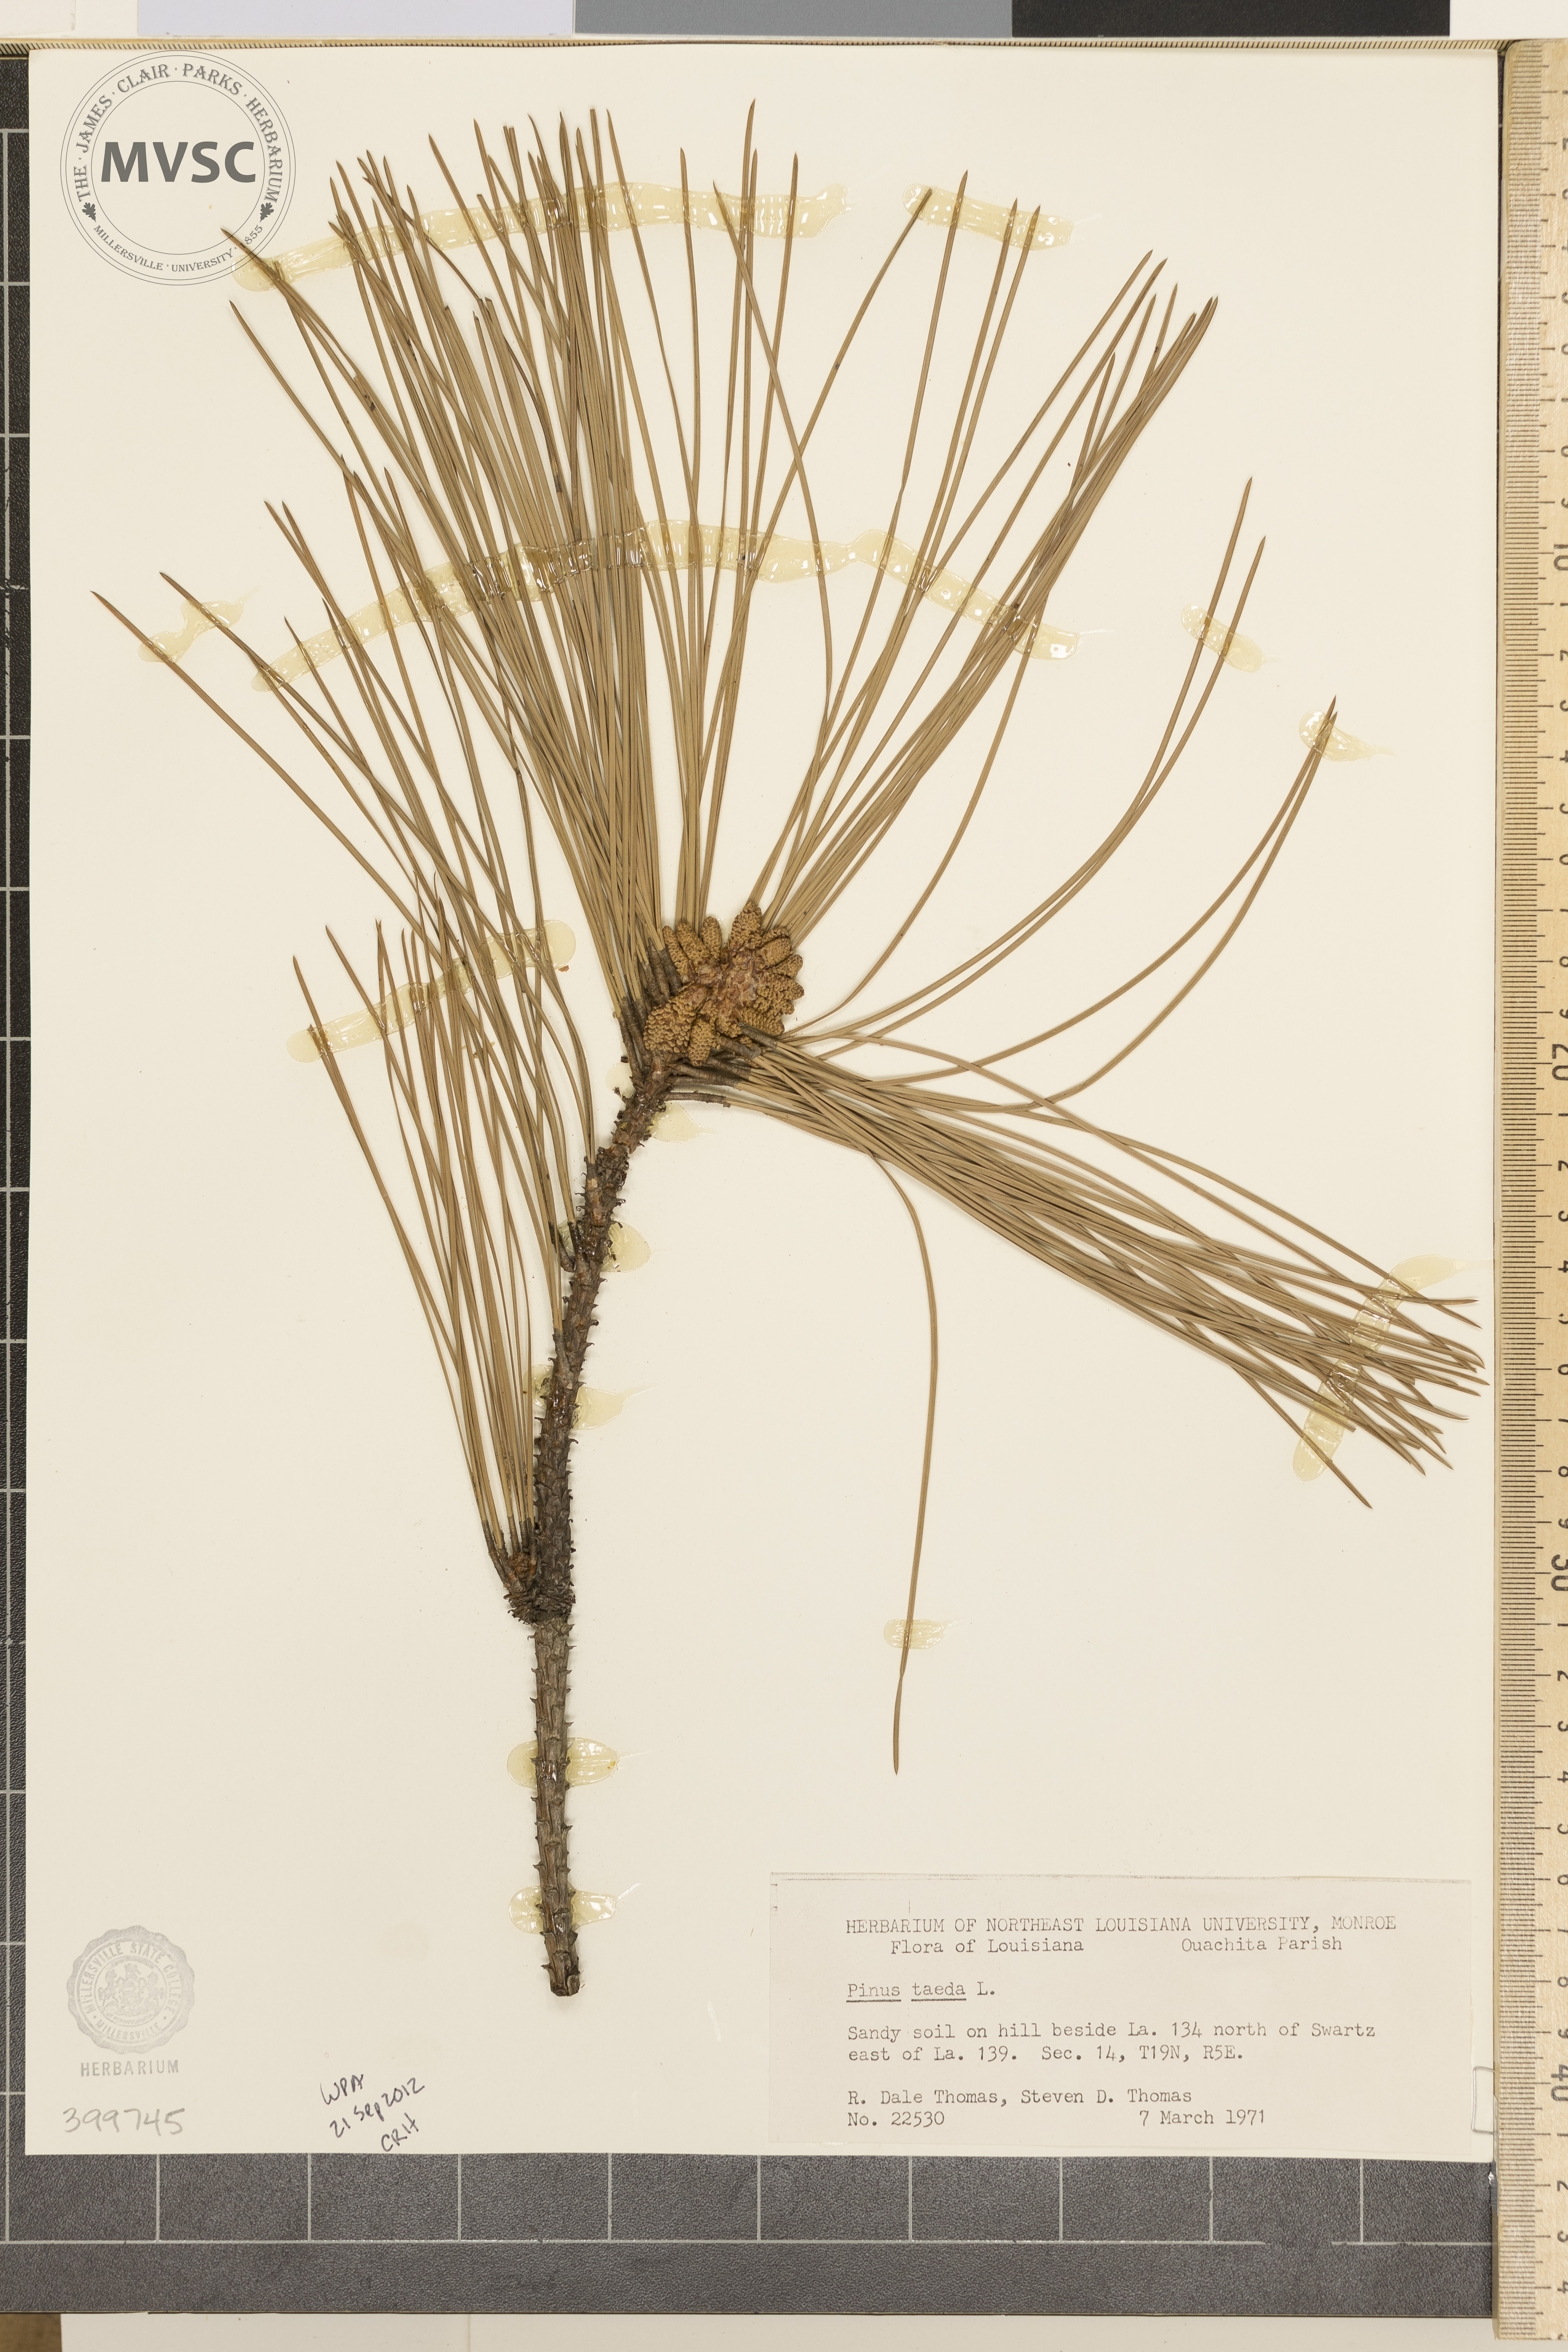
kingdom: Plantae
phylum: Tracheophyta
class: Pinopsida
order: Pinales
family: Pinaceae
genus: Pinus
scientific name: Pinus taeda
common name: loblolly pine
